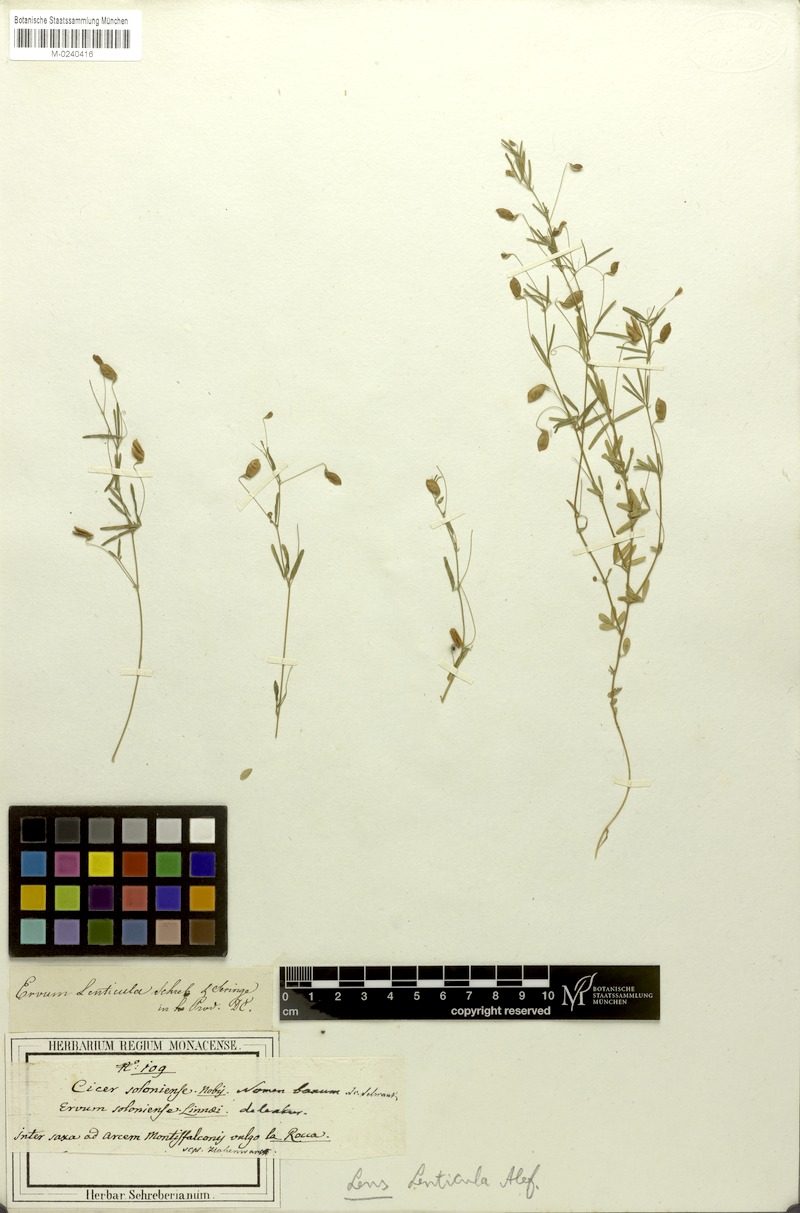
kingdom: Plantae
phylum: Tracheophyta
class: Magnoliopsida
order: Fabales
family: Fabaceae
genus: Vicia
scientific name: Vicia lenticula
